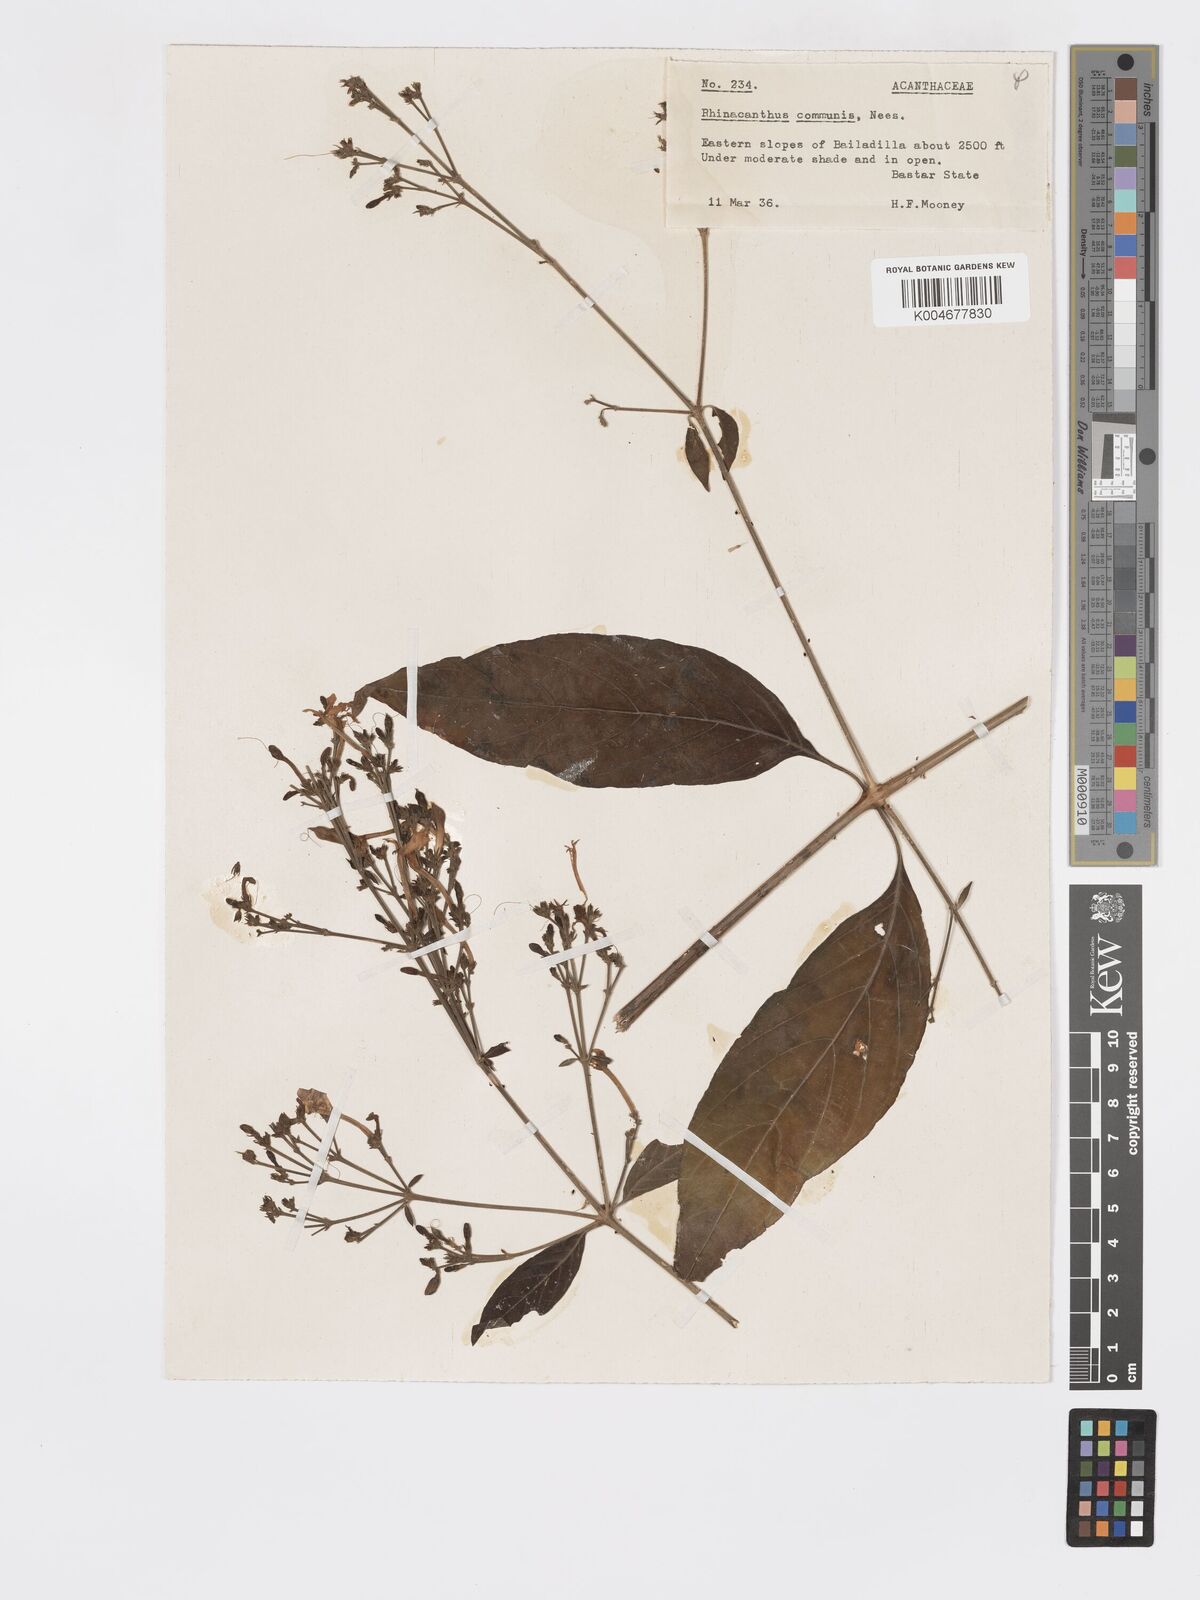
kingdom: Plantae
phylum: Tracheophyta
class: Magnoliopsida
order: Lamiales
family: Acanthaceae
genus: Rhinacanthus
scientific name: Rhinacanthus nasutus
